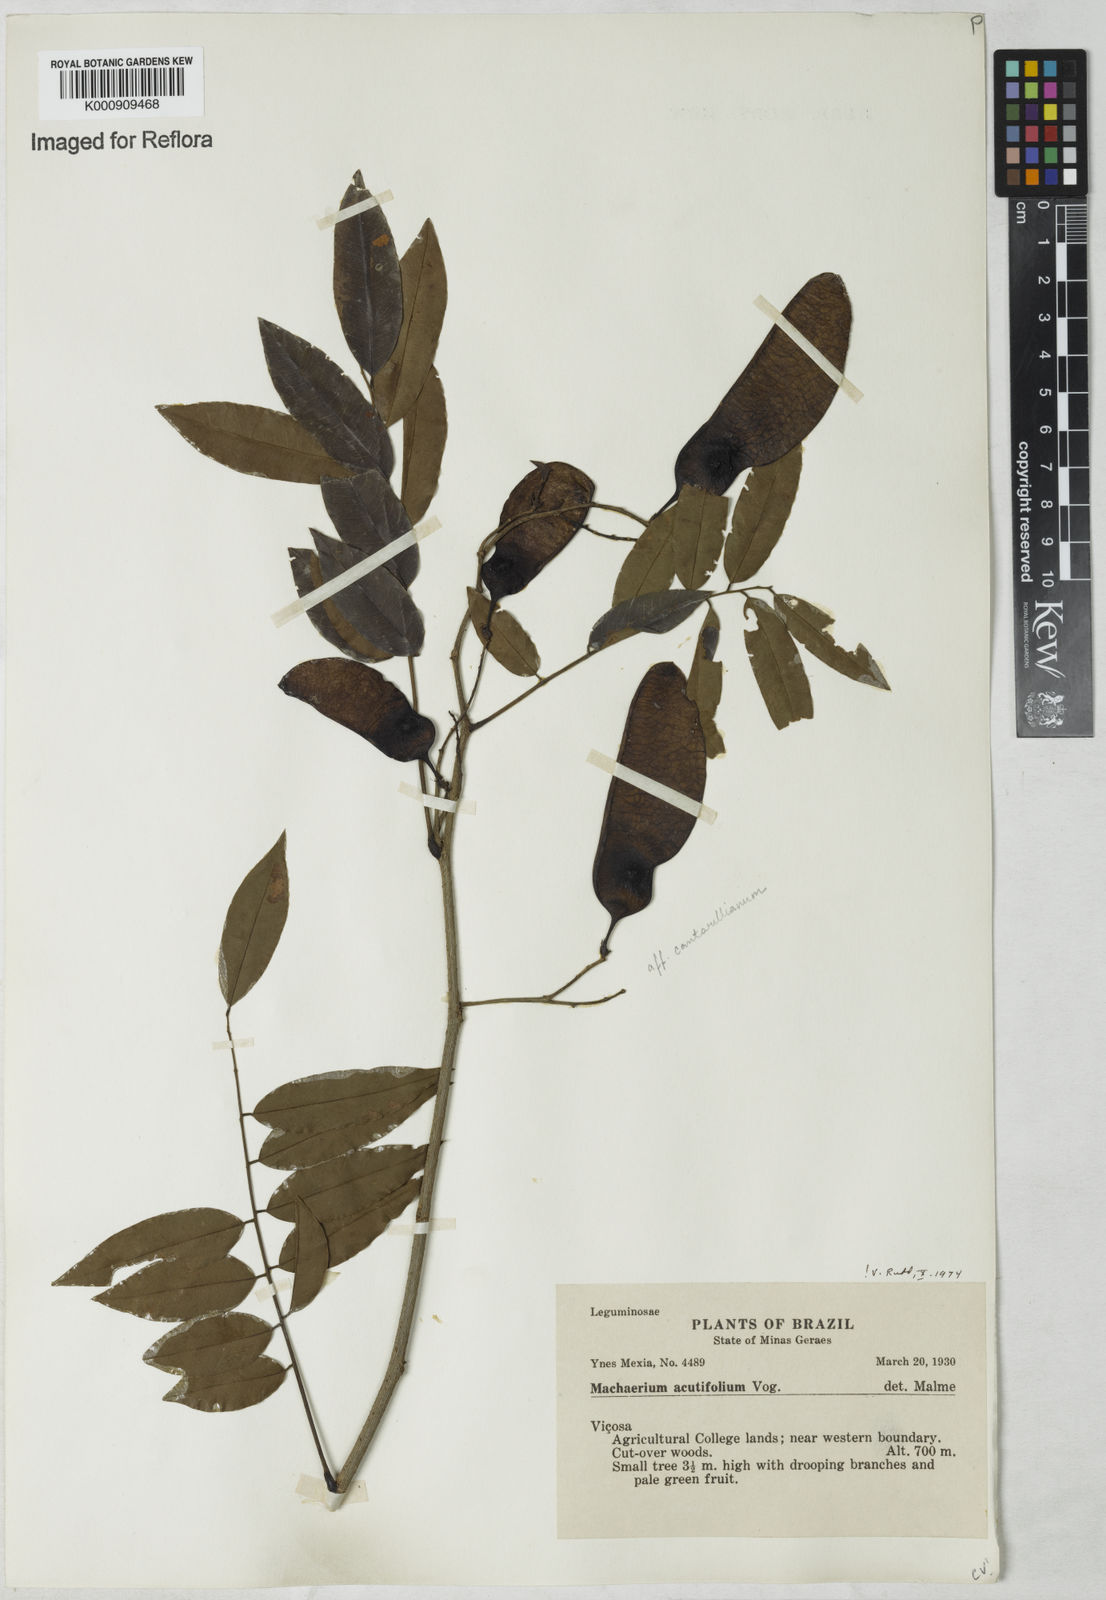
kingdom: Plantae
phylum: Tracheophyta
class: Magnoliopsida
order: Fabales
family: Fabaceae
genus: Machaerium
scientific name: Machaerium acutifolium
